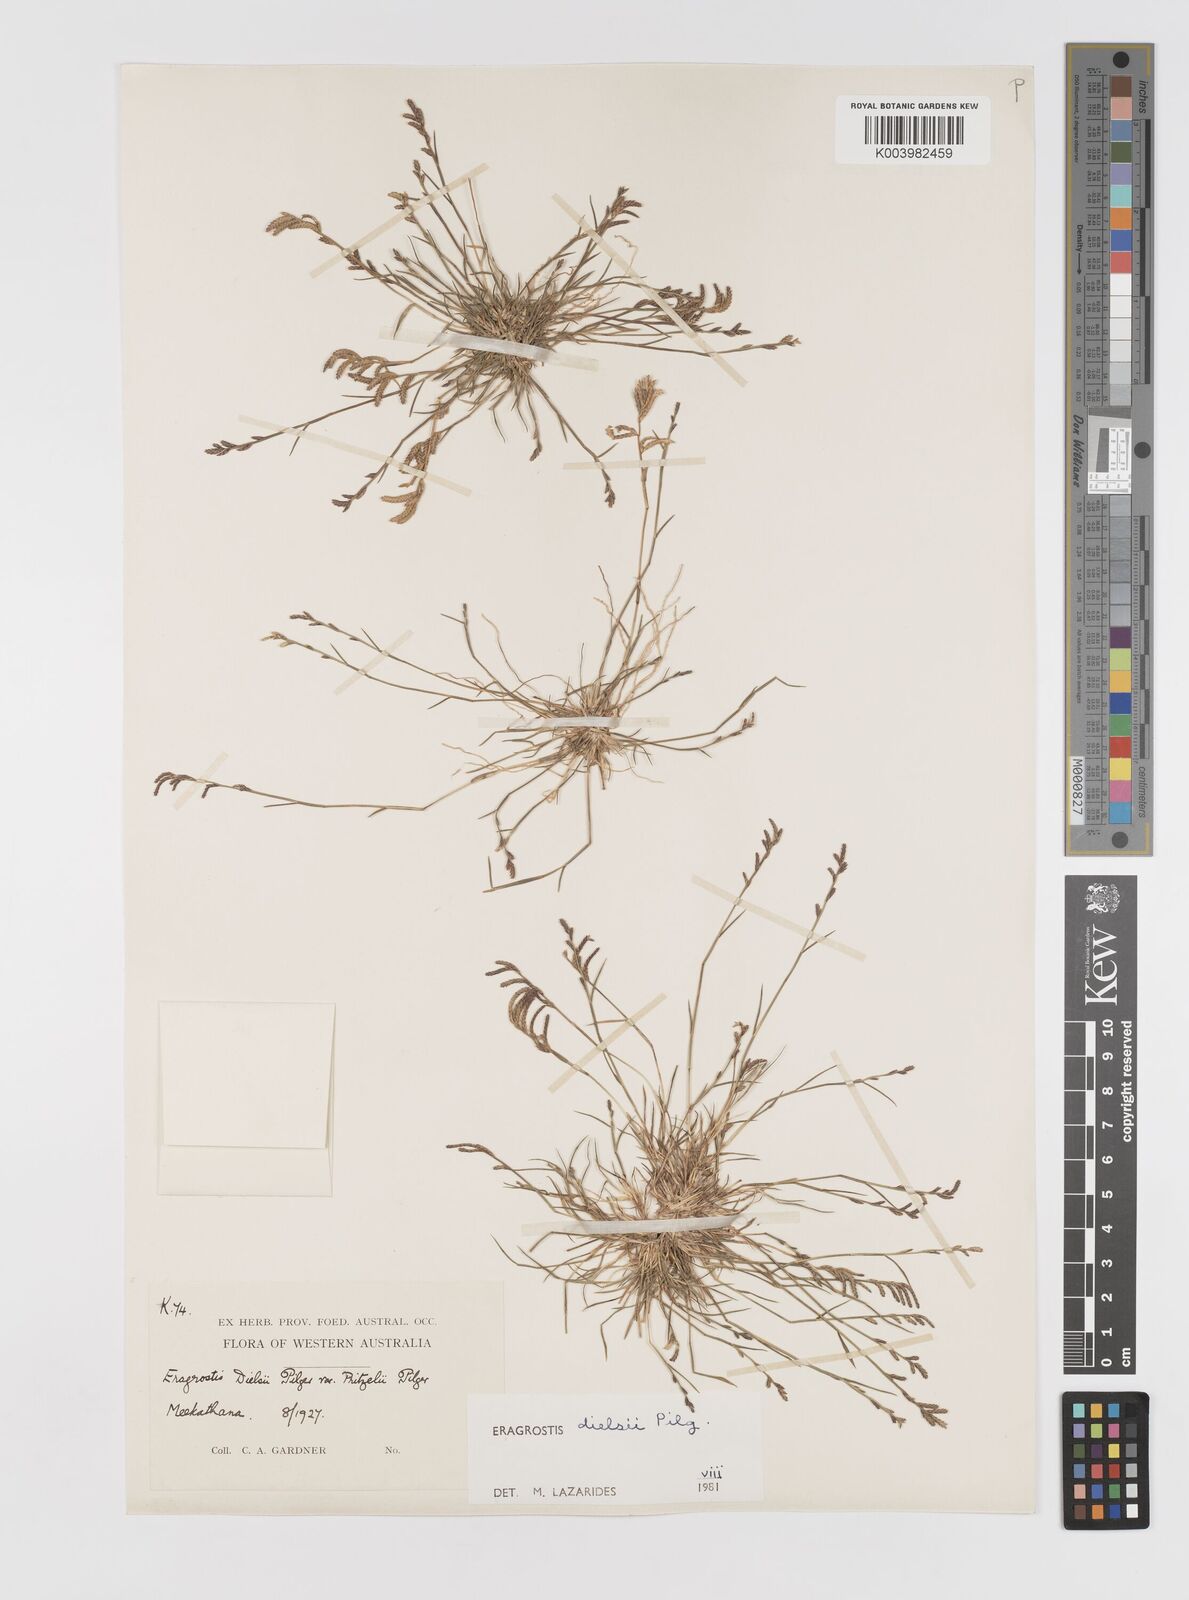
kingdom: Plantae
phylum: Tracheophyta
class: Liliopsida
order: Poales
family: Poaceae
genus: Eragrostis
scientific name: Eragrostis dielsii
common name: Lovegrass
